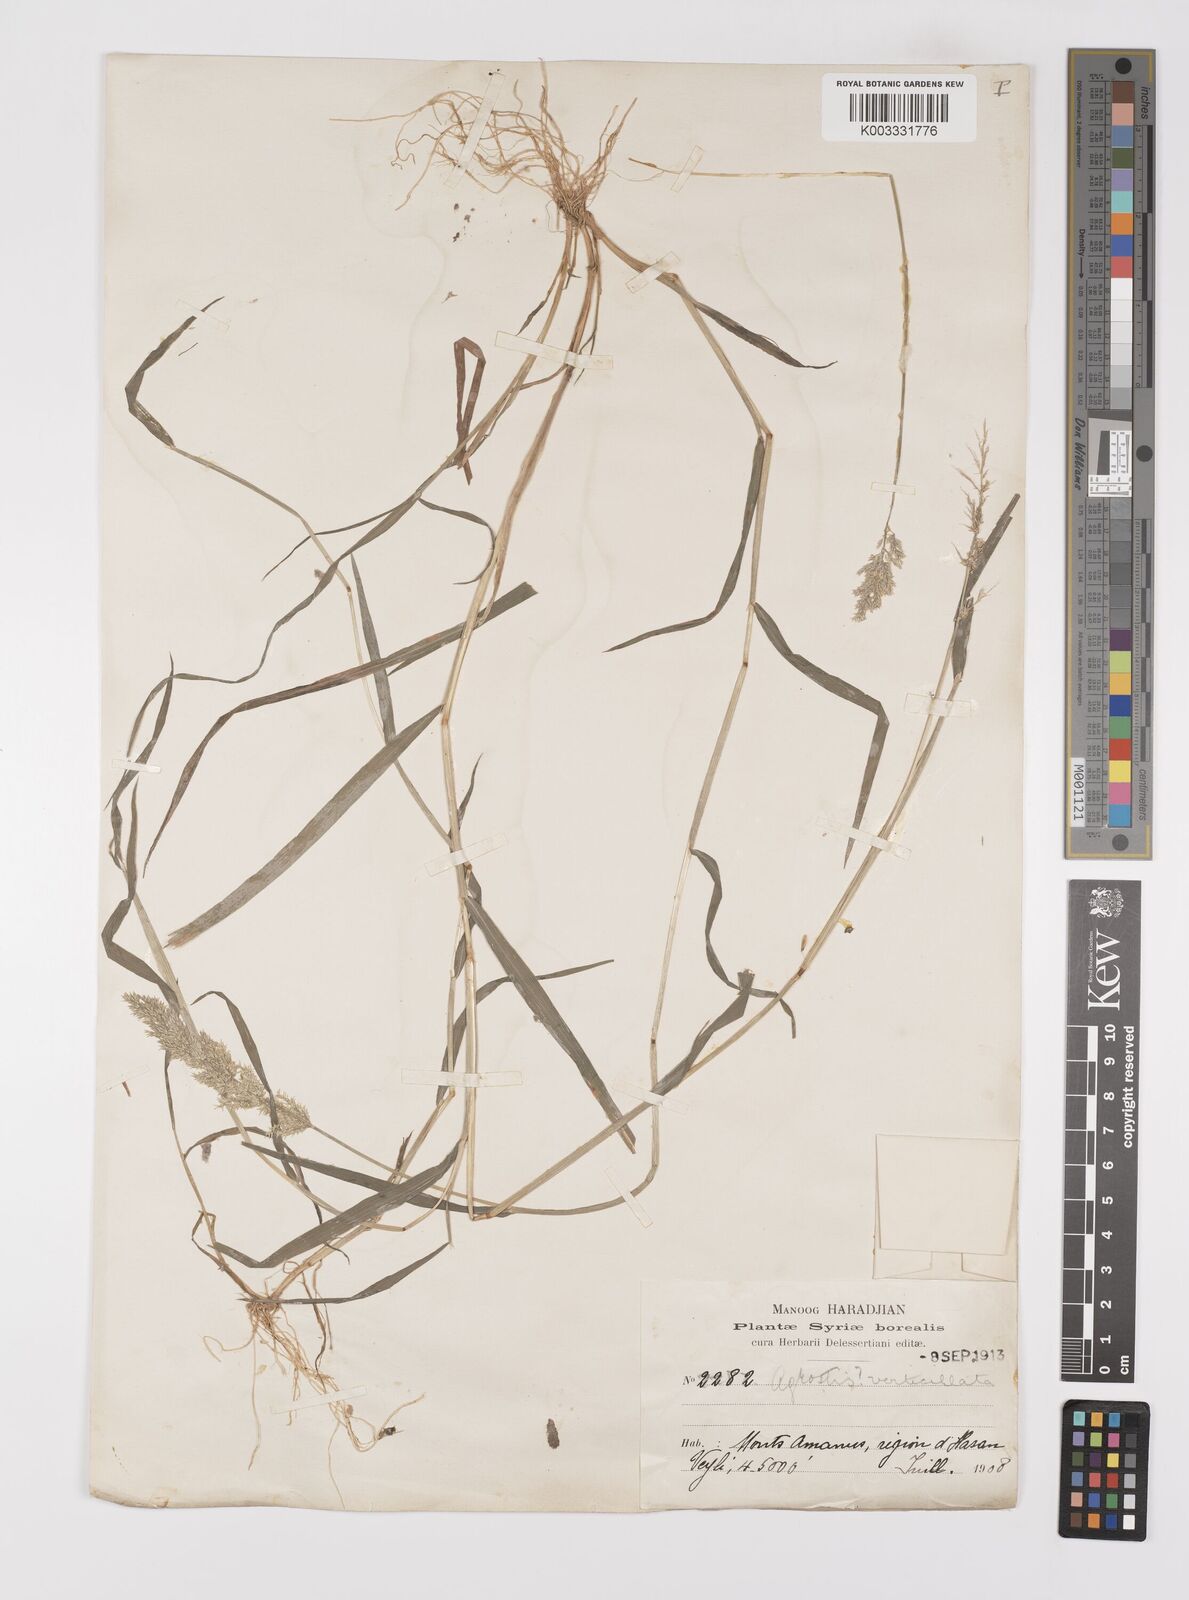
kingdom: Plantae
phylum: Tracheophyta
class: Liliopsida
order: Poales
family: Poaceae
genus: Polypogon
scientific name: Polypogon viridis
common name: Water bent
